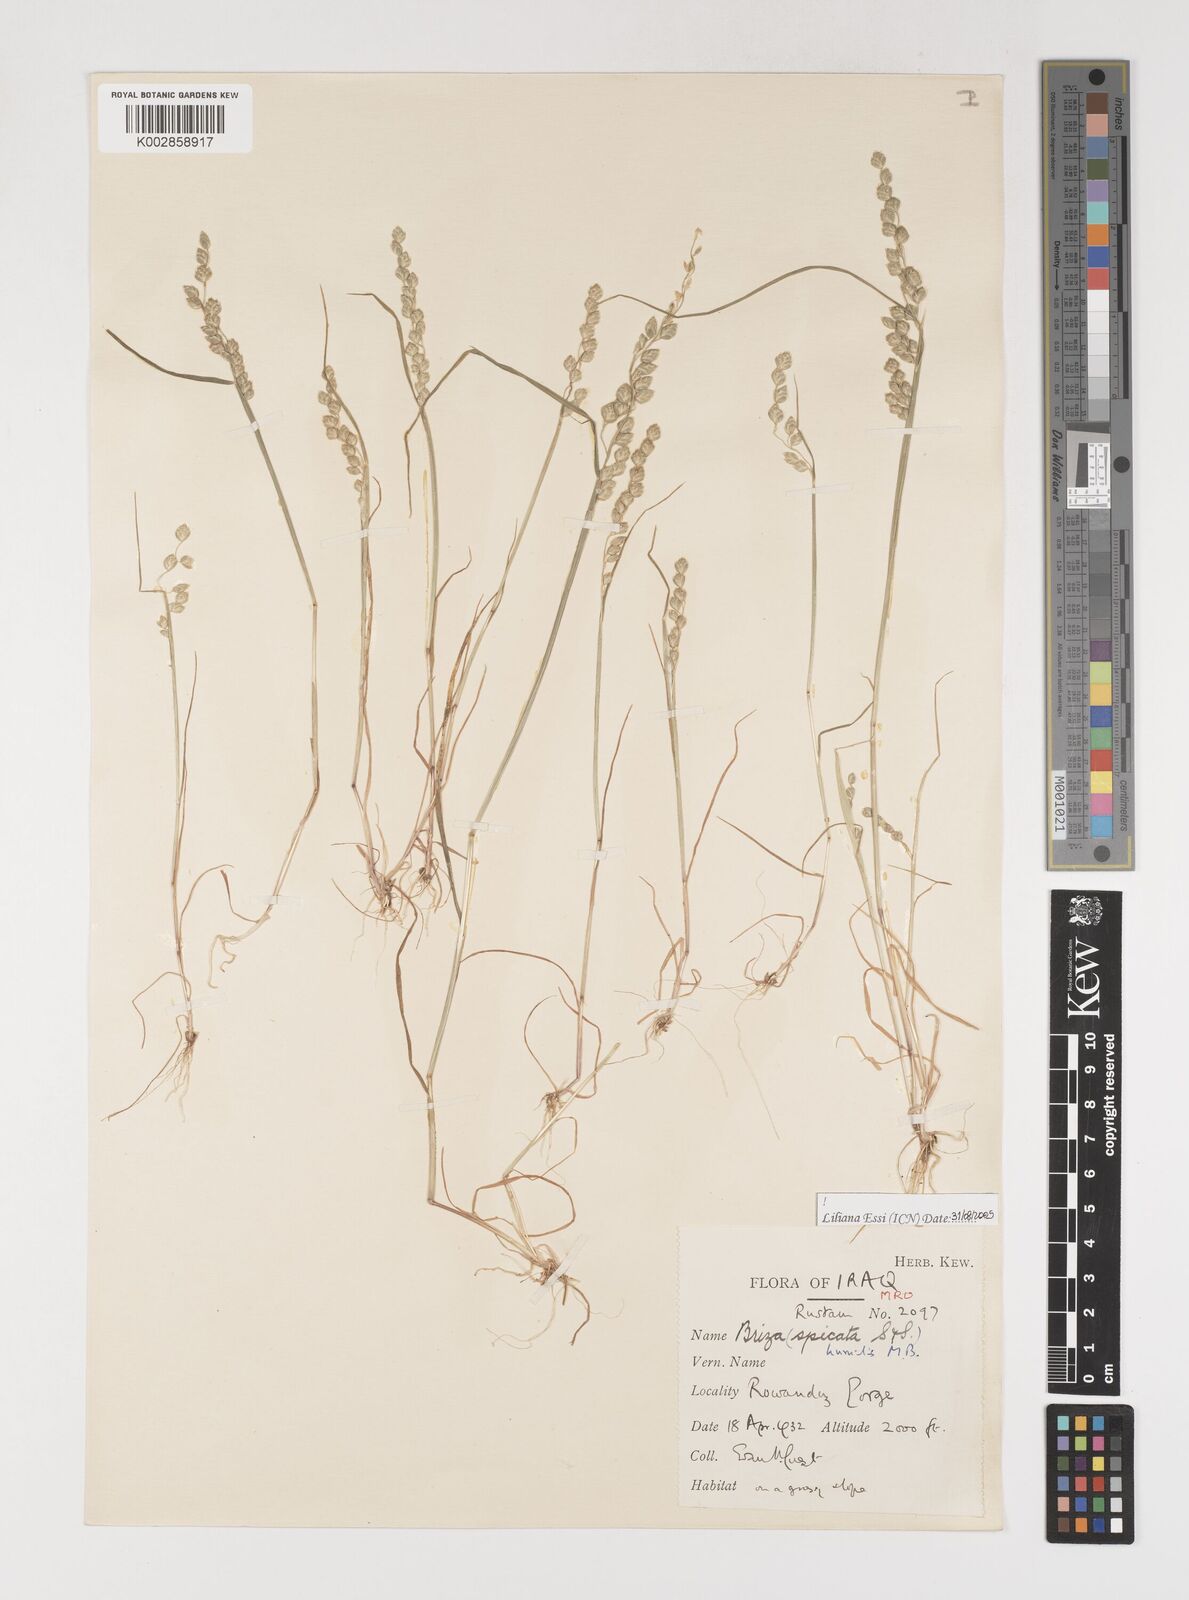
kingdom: Plantae
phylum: Tracheophyta
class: Liliopsida
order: Poales
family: Poaceae
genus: Briza
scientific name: Briza humilis
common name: Spiked quaking grass
